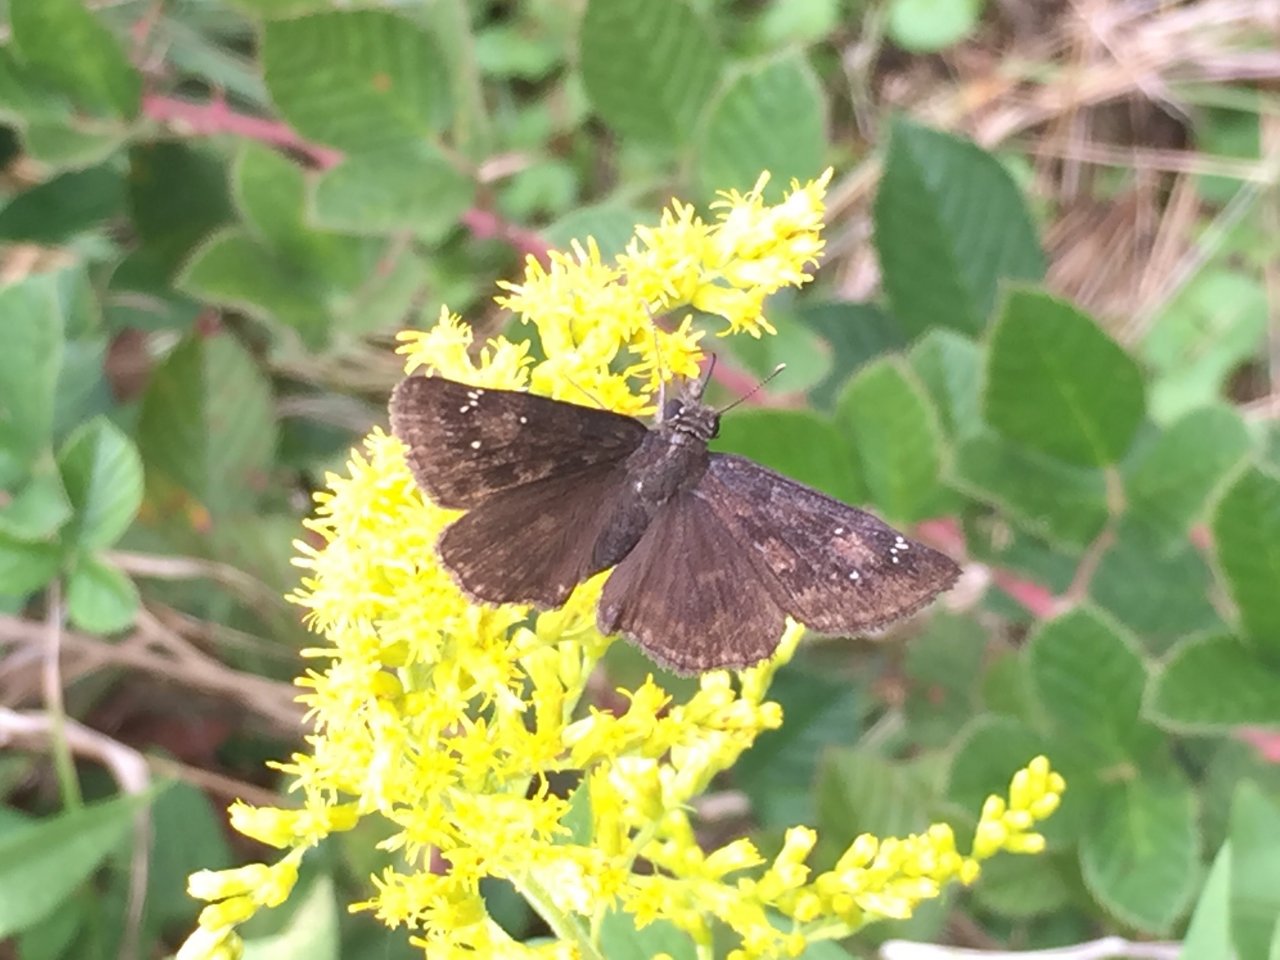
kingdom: Animalia
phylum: Arthropoda
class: Insecta
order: Lepidoptera
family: Hesperiidae
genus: Gesta
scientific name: Gesta
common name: Horace's Duskywing
